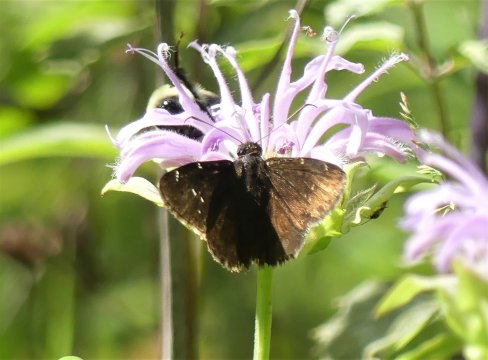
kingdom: Animalia
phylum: Arthropoda
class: Insecta
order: Lepidoptera
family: Hesperiidae
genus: Autochton
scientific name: Autochton
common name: Northern Cloudywing
